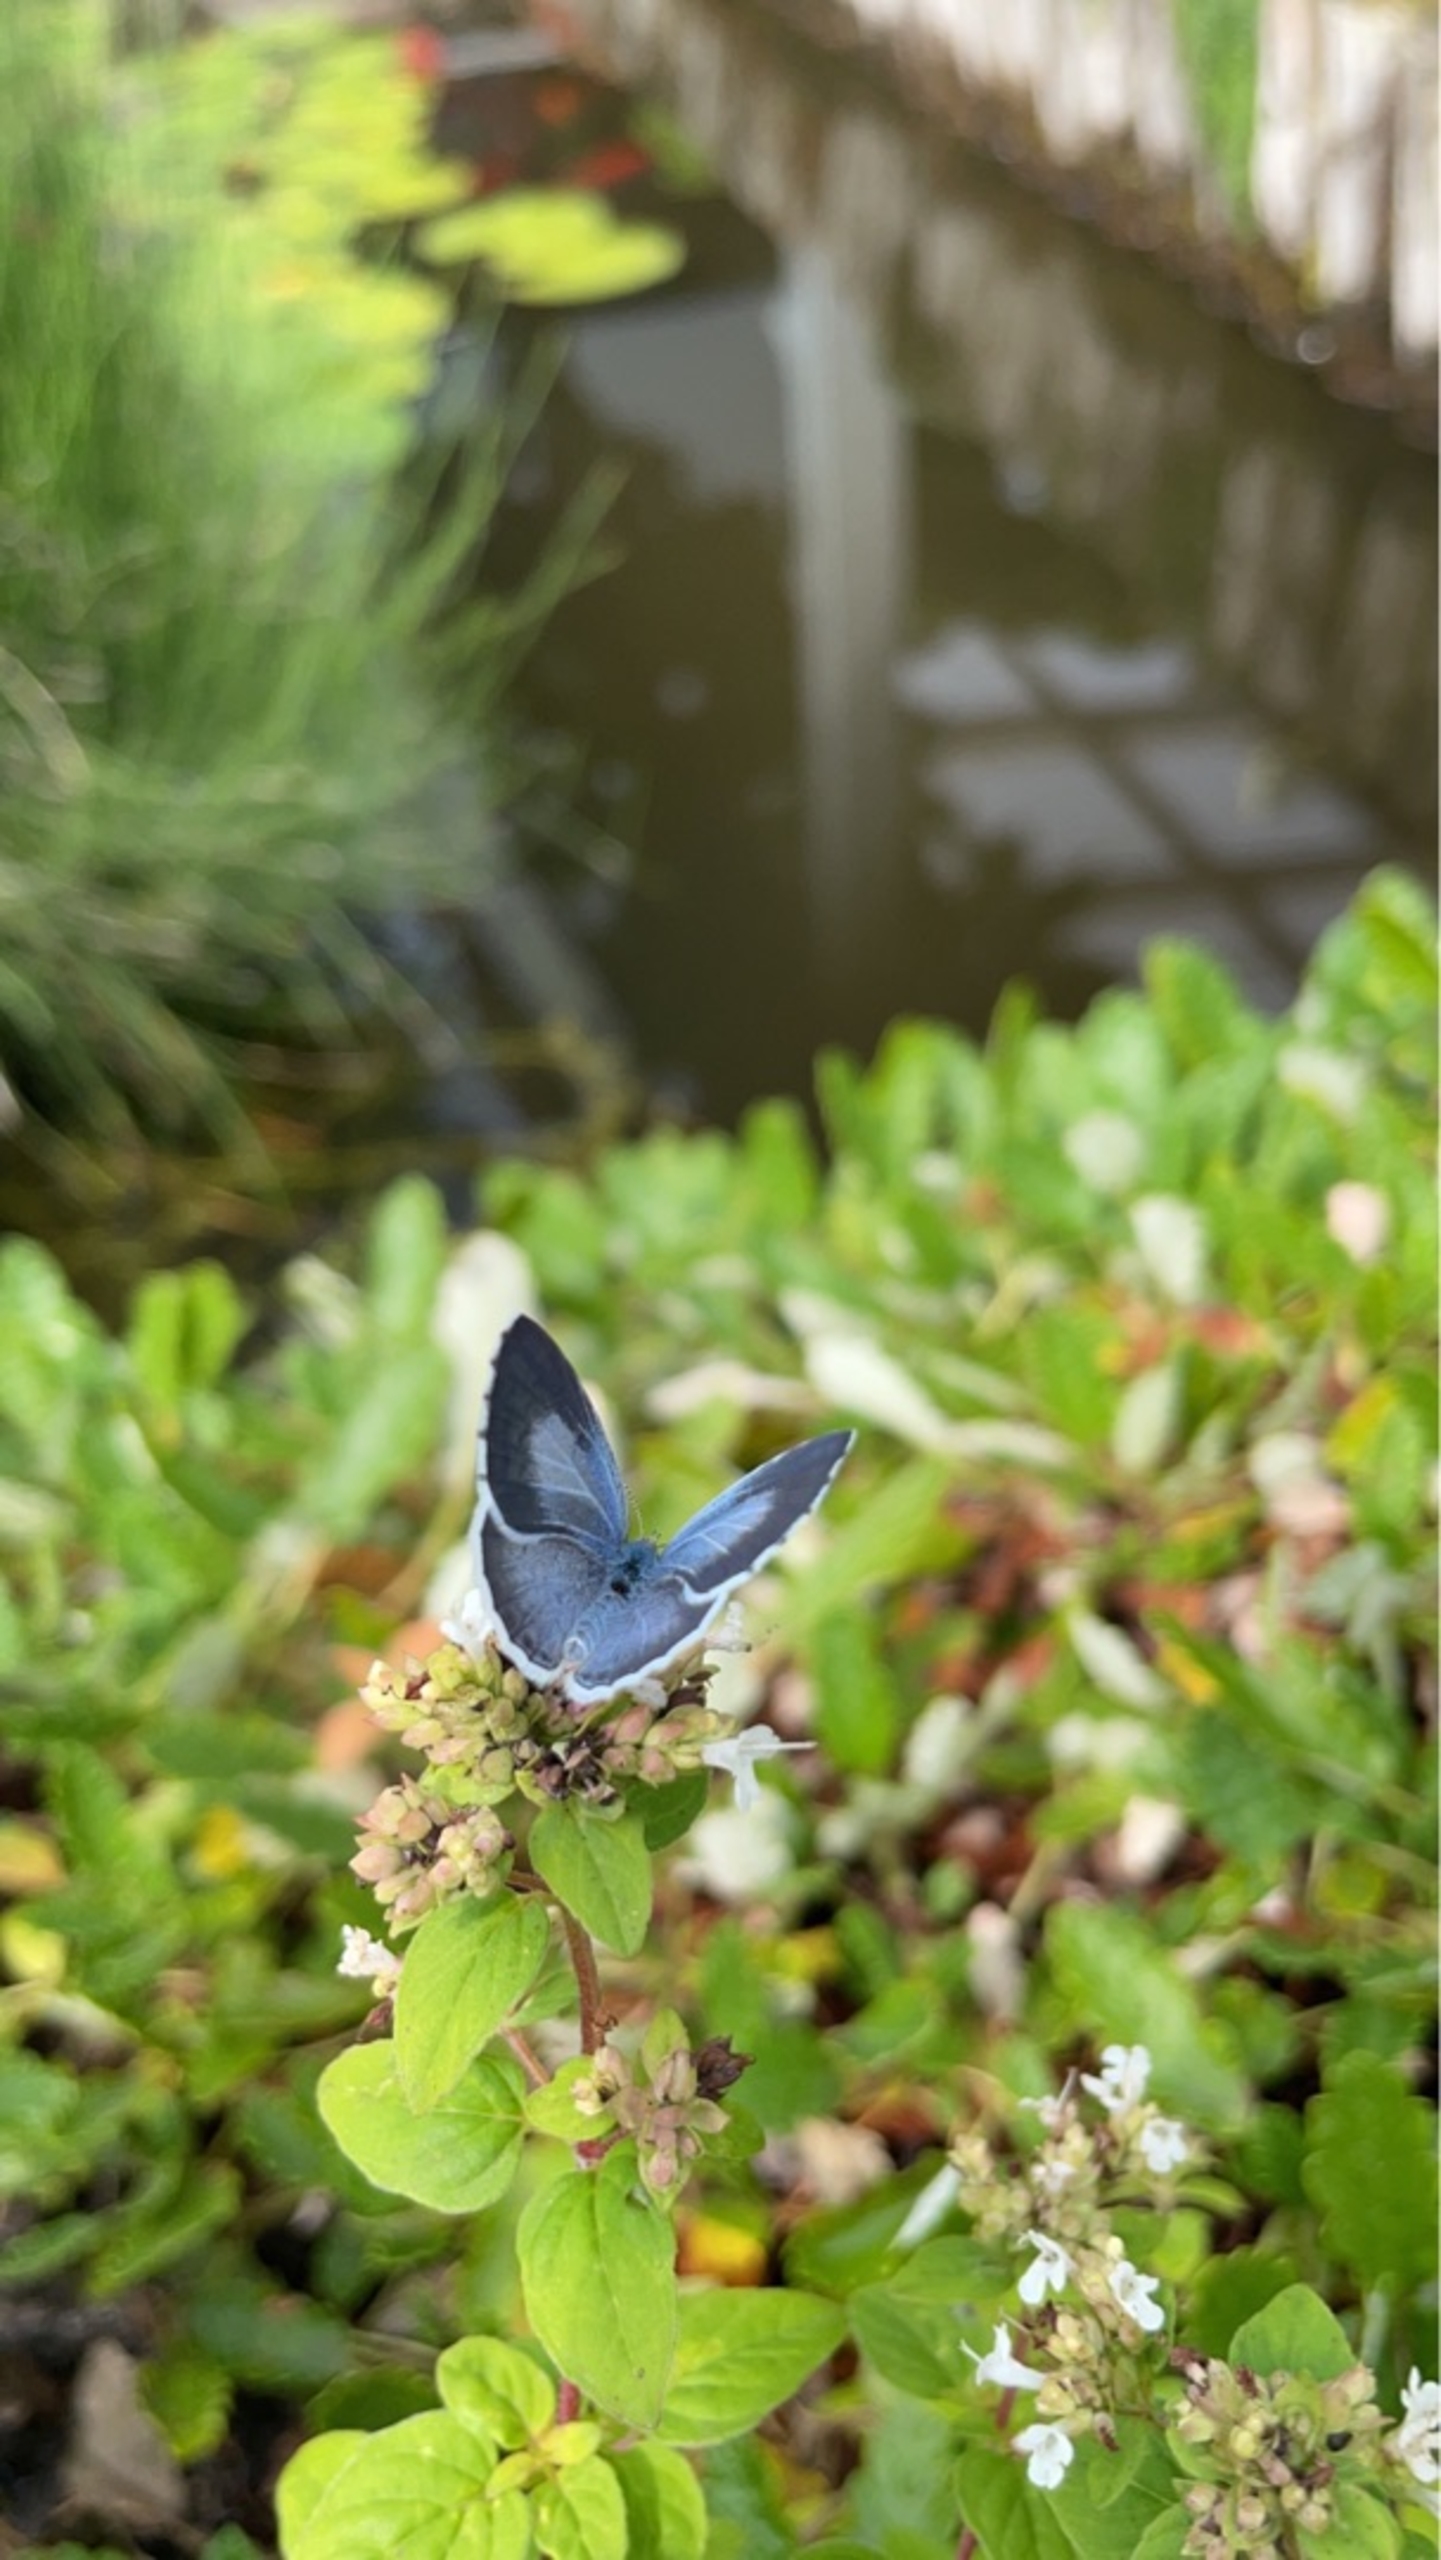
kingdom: Animalia
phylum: Arthropoda
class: Insecta
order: Lepidoptera
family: Lycaenidae
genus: Celastrina
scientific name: Celastrina argiolus
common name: Skovblåfugl
